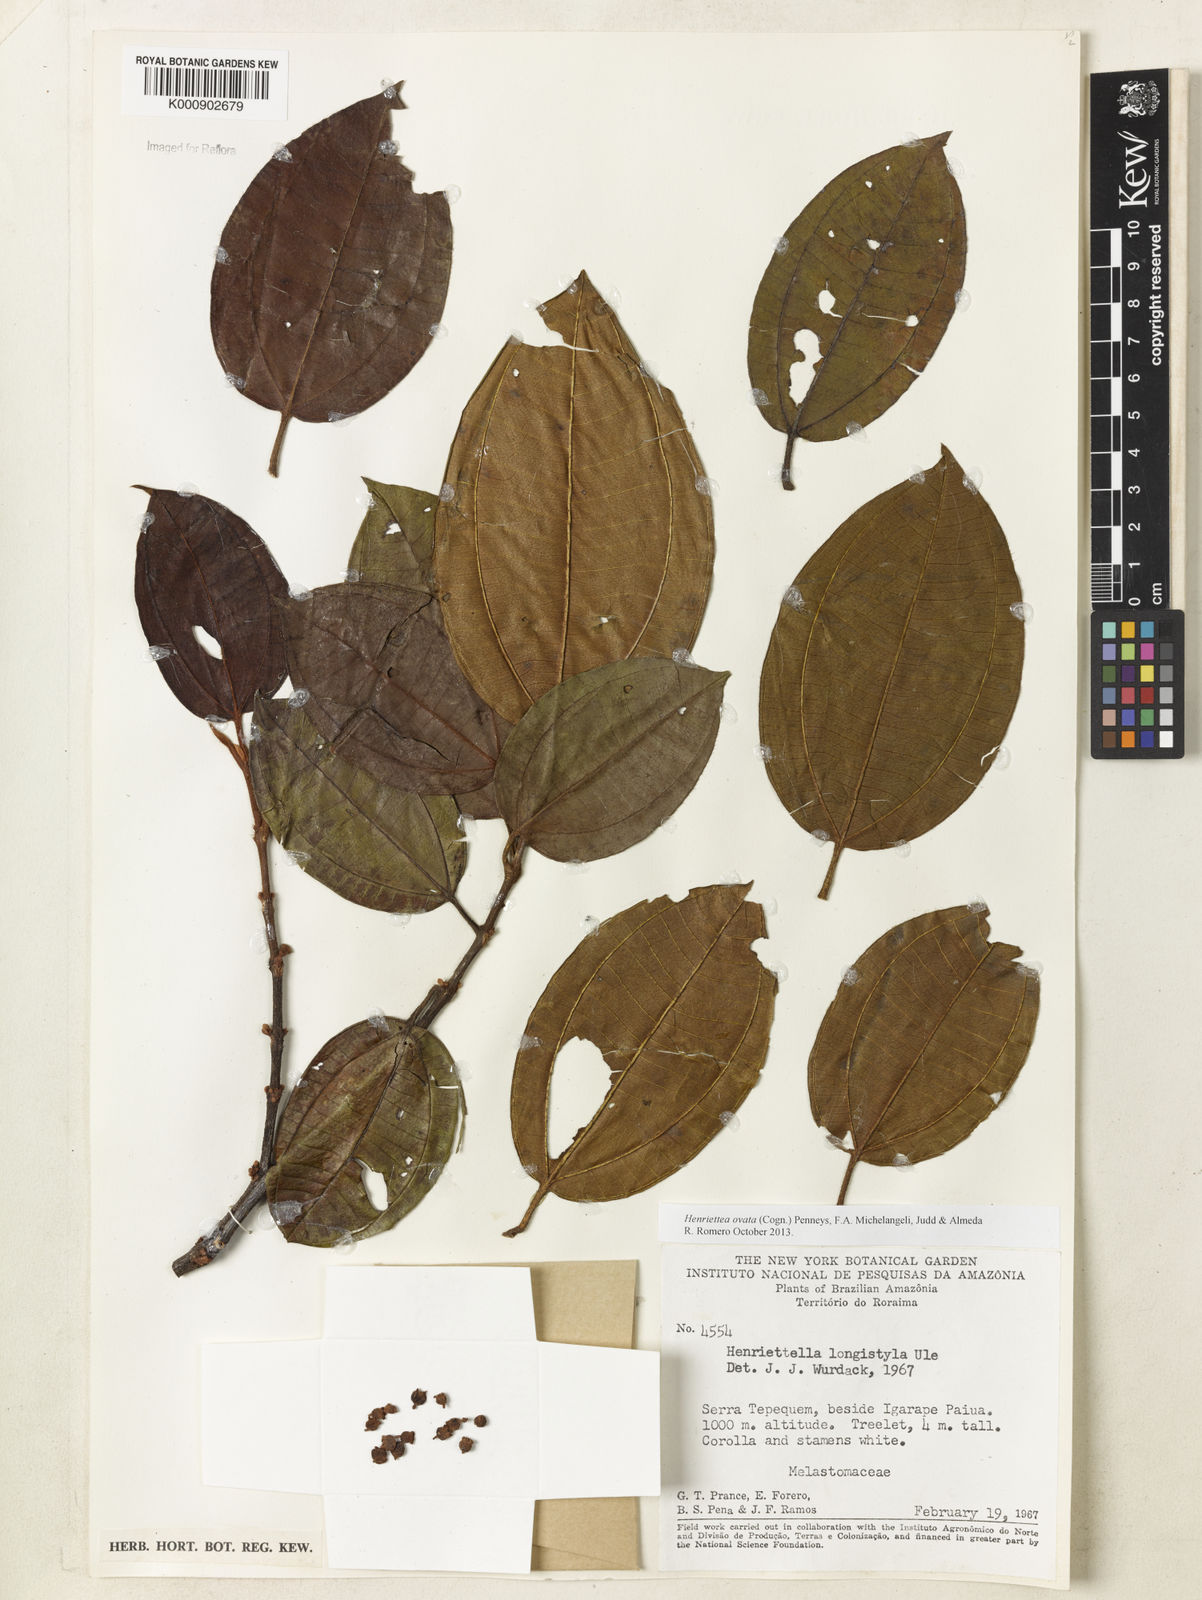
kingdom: Plantae
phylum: Tracheophyta
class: Magnoliopsida
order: Myrtales
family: Melastomataceae
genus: Henriettea
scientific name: Henriettea ovata
